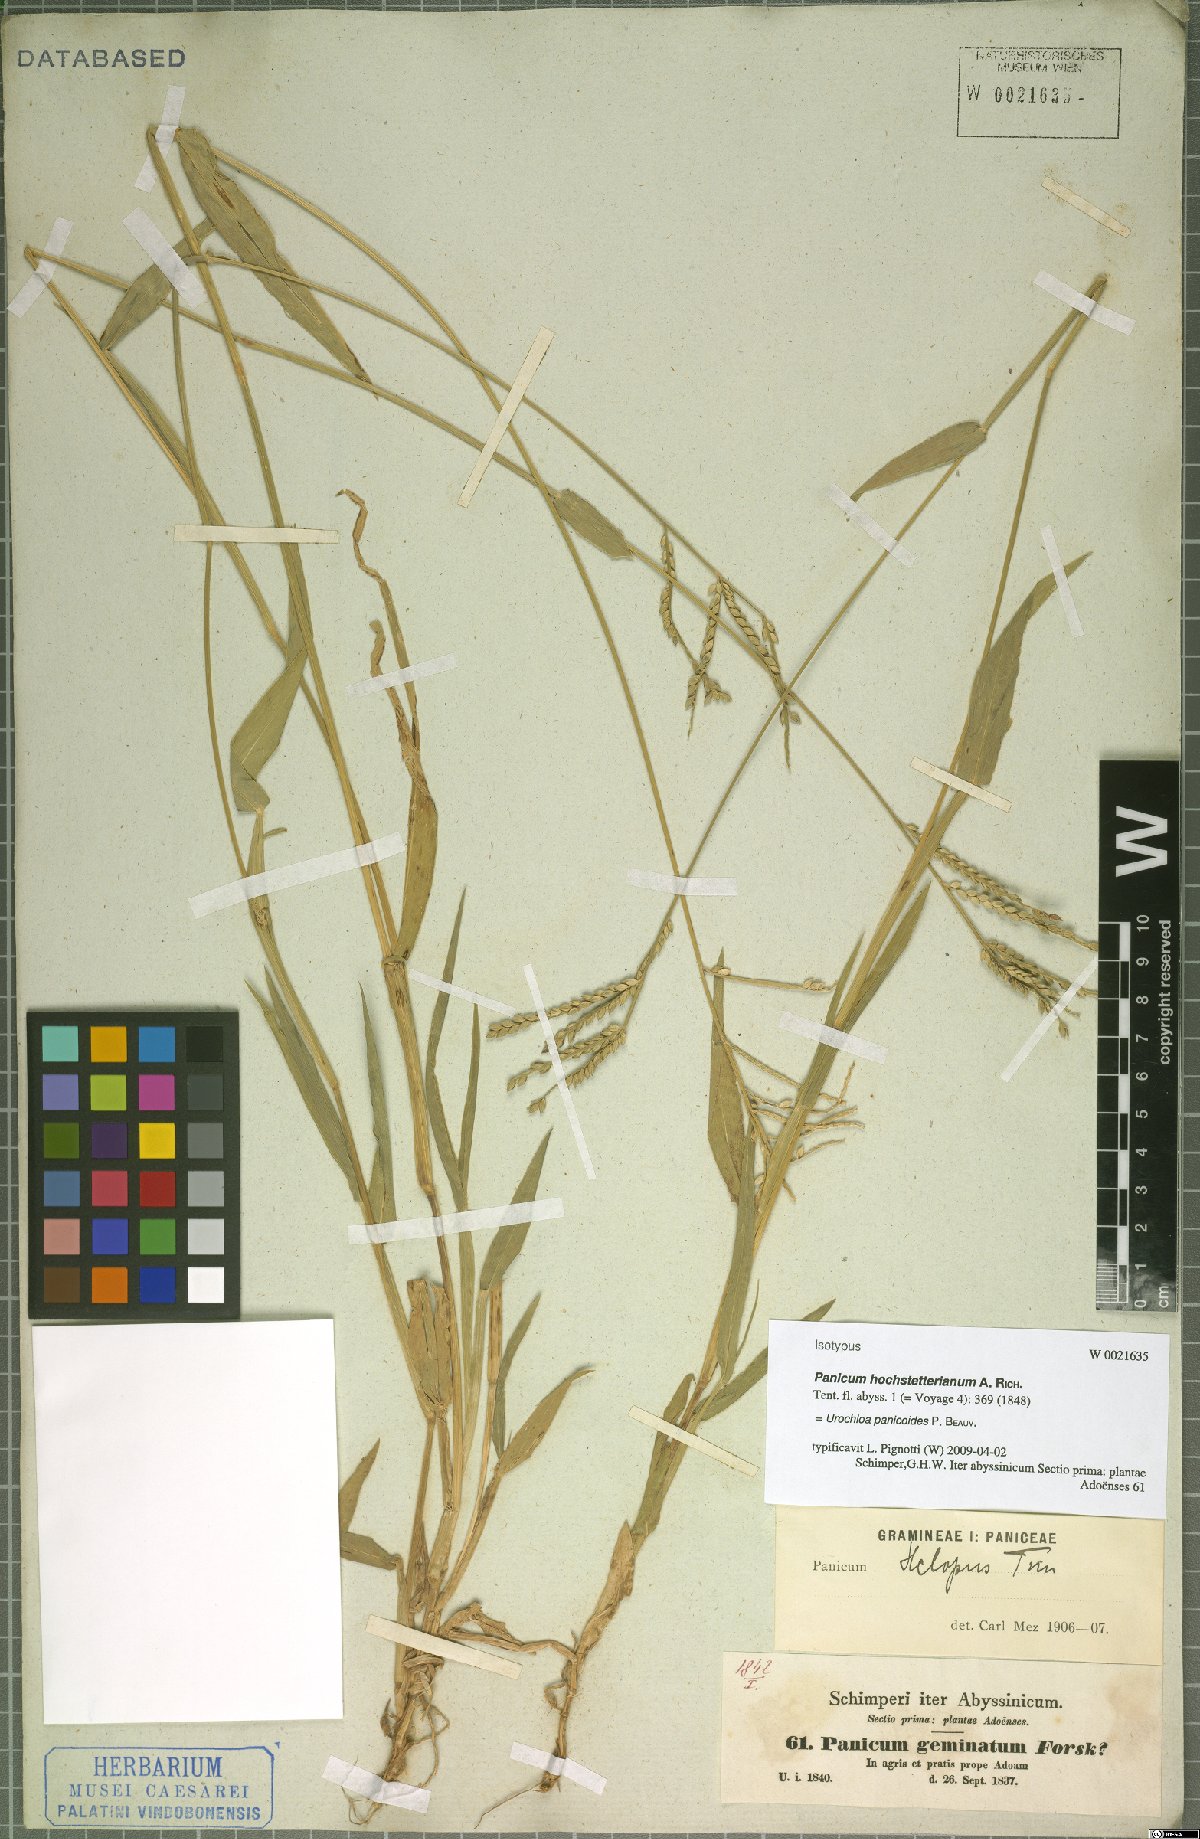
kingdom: Plantae
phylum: Tracheophyta
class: Liliopsida
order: Poales
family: Poaceae
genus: Urochloa
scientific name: Urochloa panicoides
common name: Sharp-flowered signal-grass
